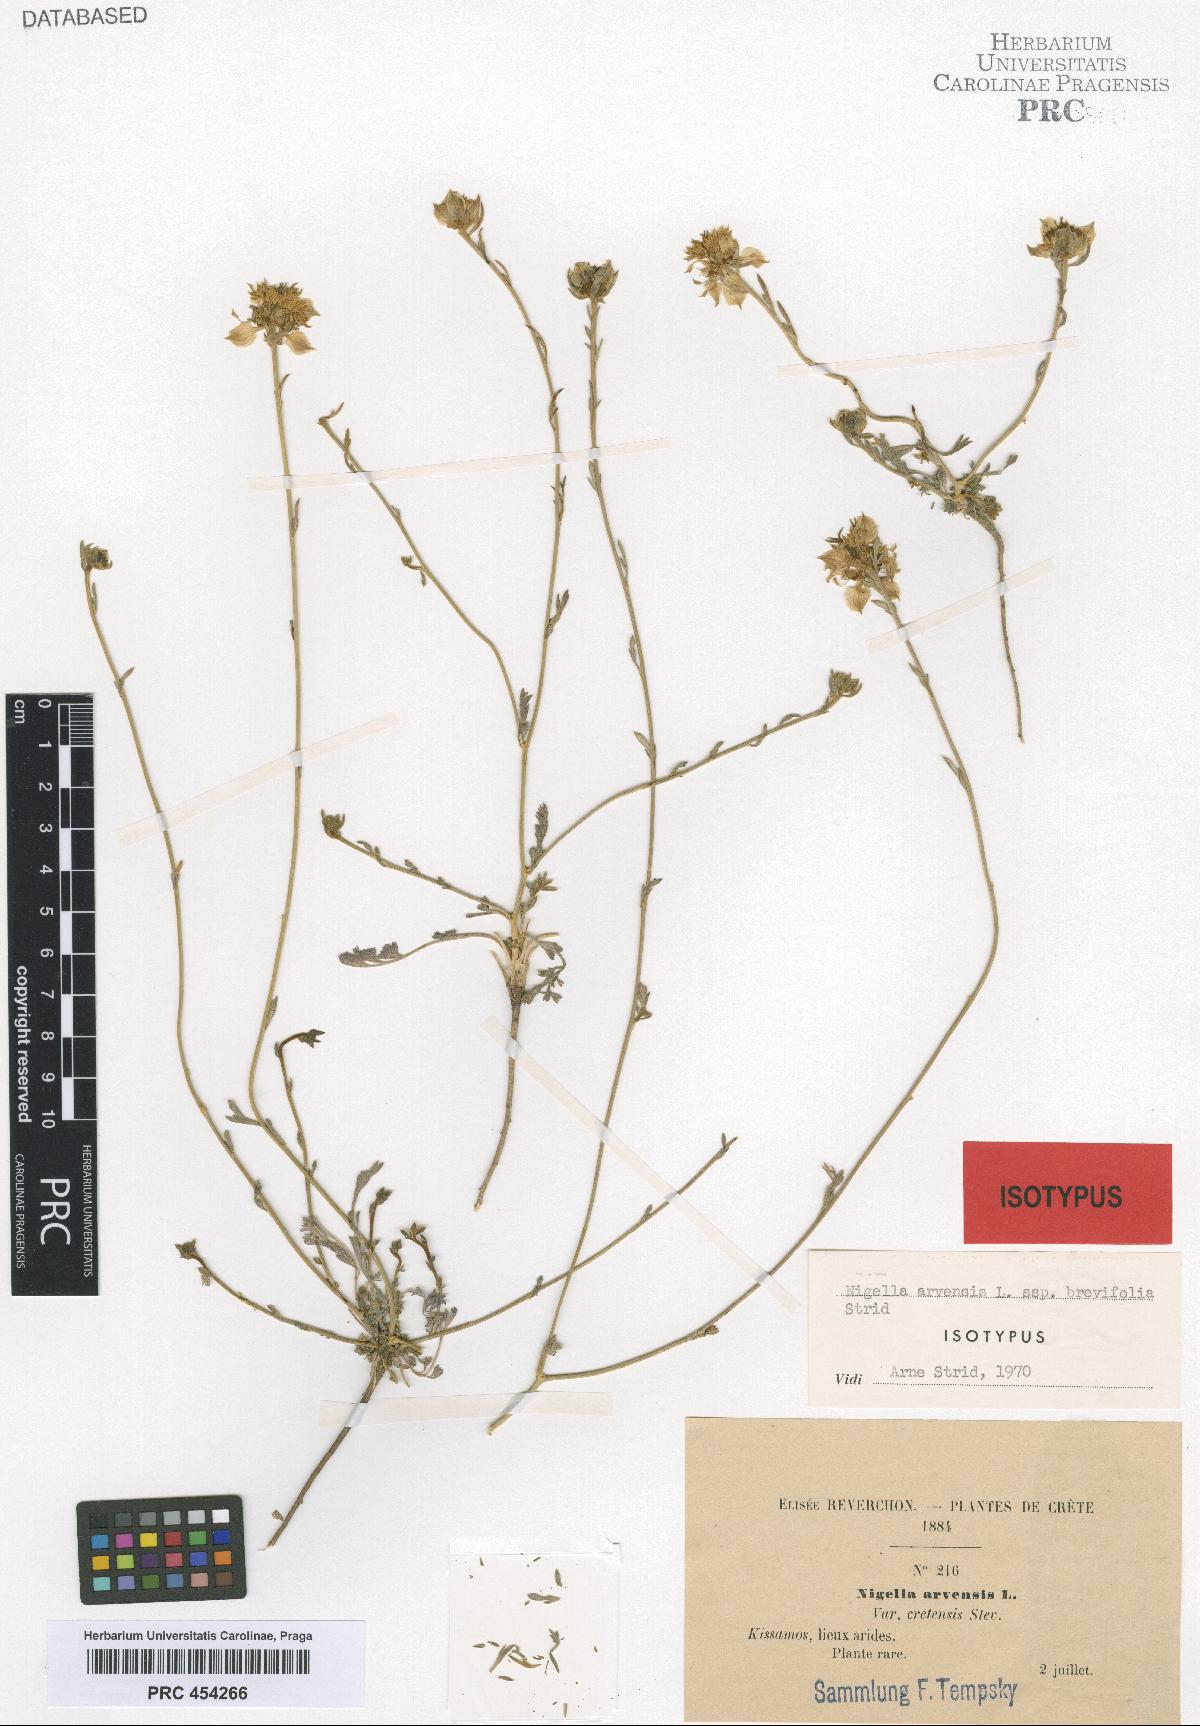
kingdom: Plantae
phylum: Tracheophyta
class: Magnoliopsida
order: Ranunculales
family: Ranunculaceae
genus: Nigella
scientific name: Nigella arvensis
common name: Wild fennel-flower
